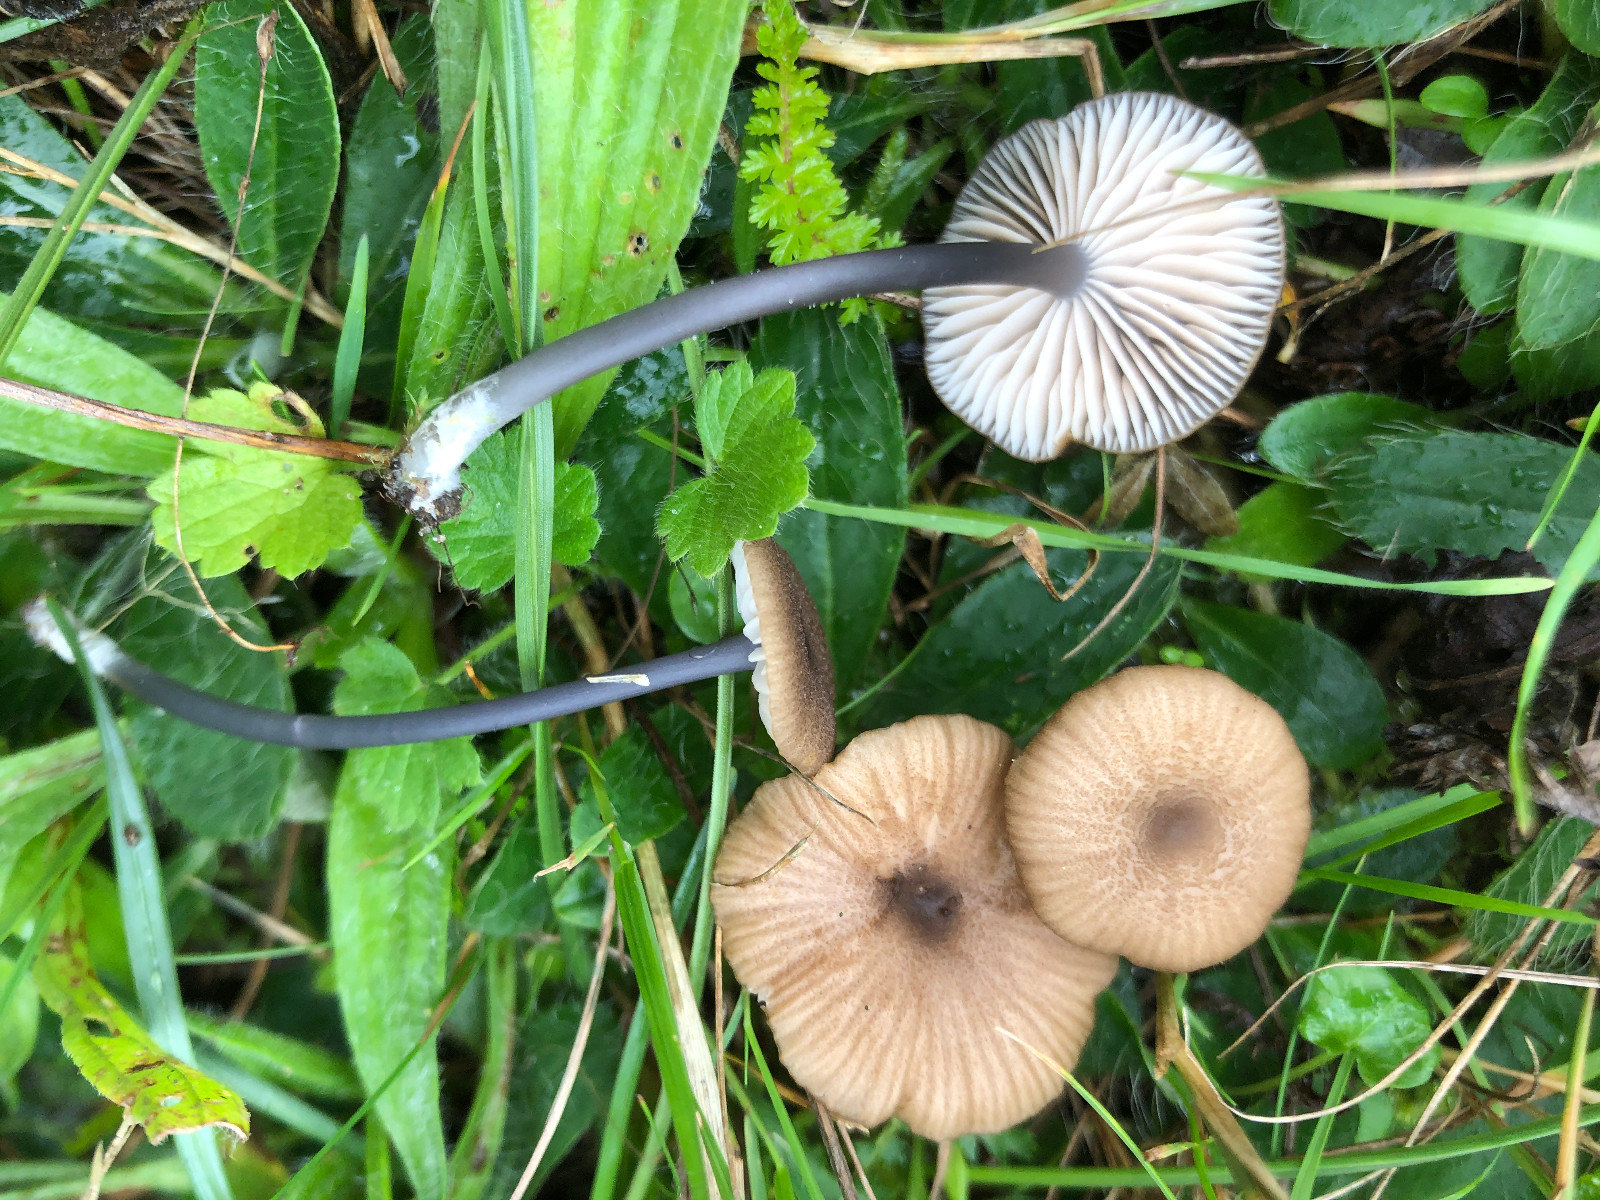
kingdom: Fungi
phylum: Basidiomycota
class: Agaricomycetes
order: Agaricales
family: Entolomataceae
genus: Entoloma
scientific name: Entoloma asprellum
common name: ru rødblad
